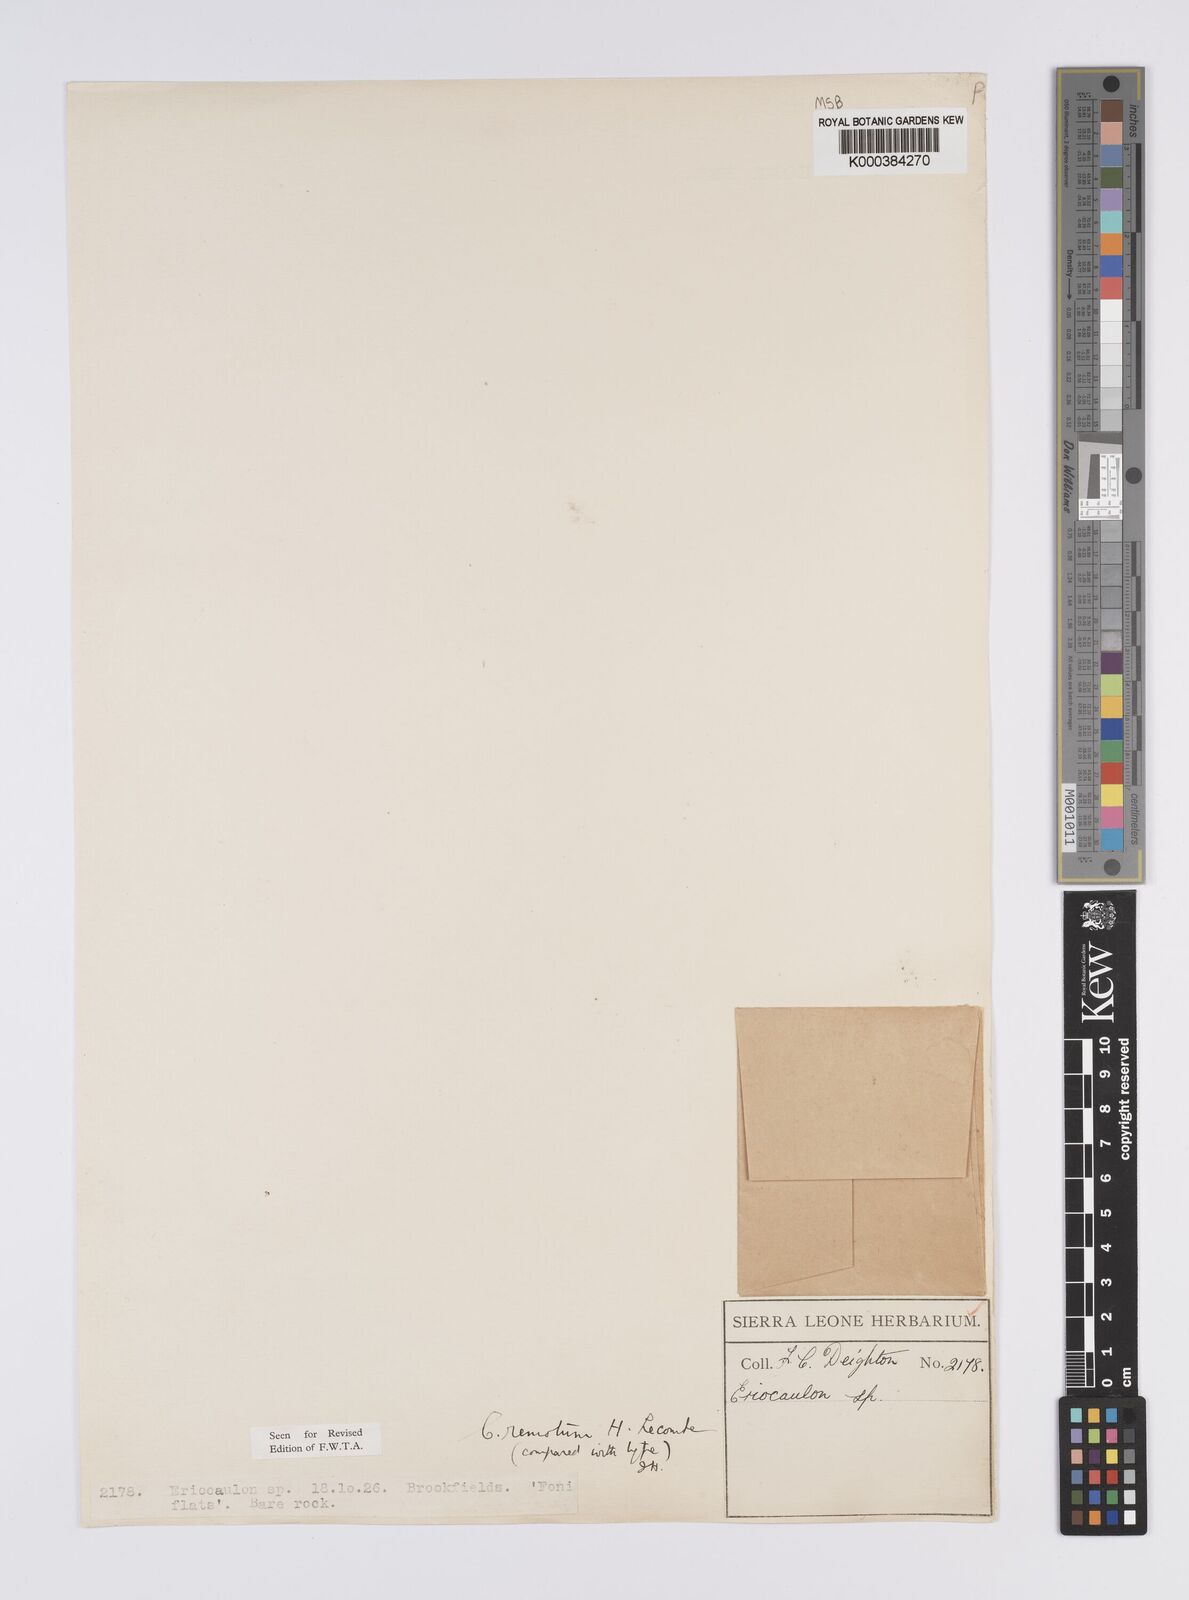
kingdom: Plantae
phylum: Tracheophyta
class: Liliopsida
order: Poales
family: Eriocaulaceae
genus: Eriocaulon
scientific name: Eriocaulon remotum
